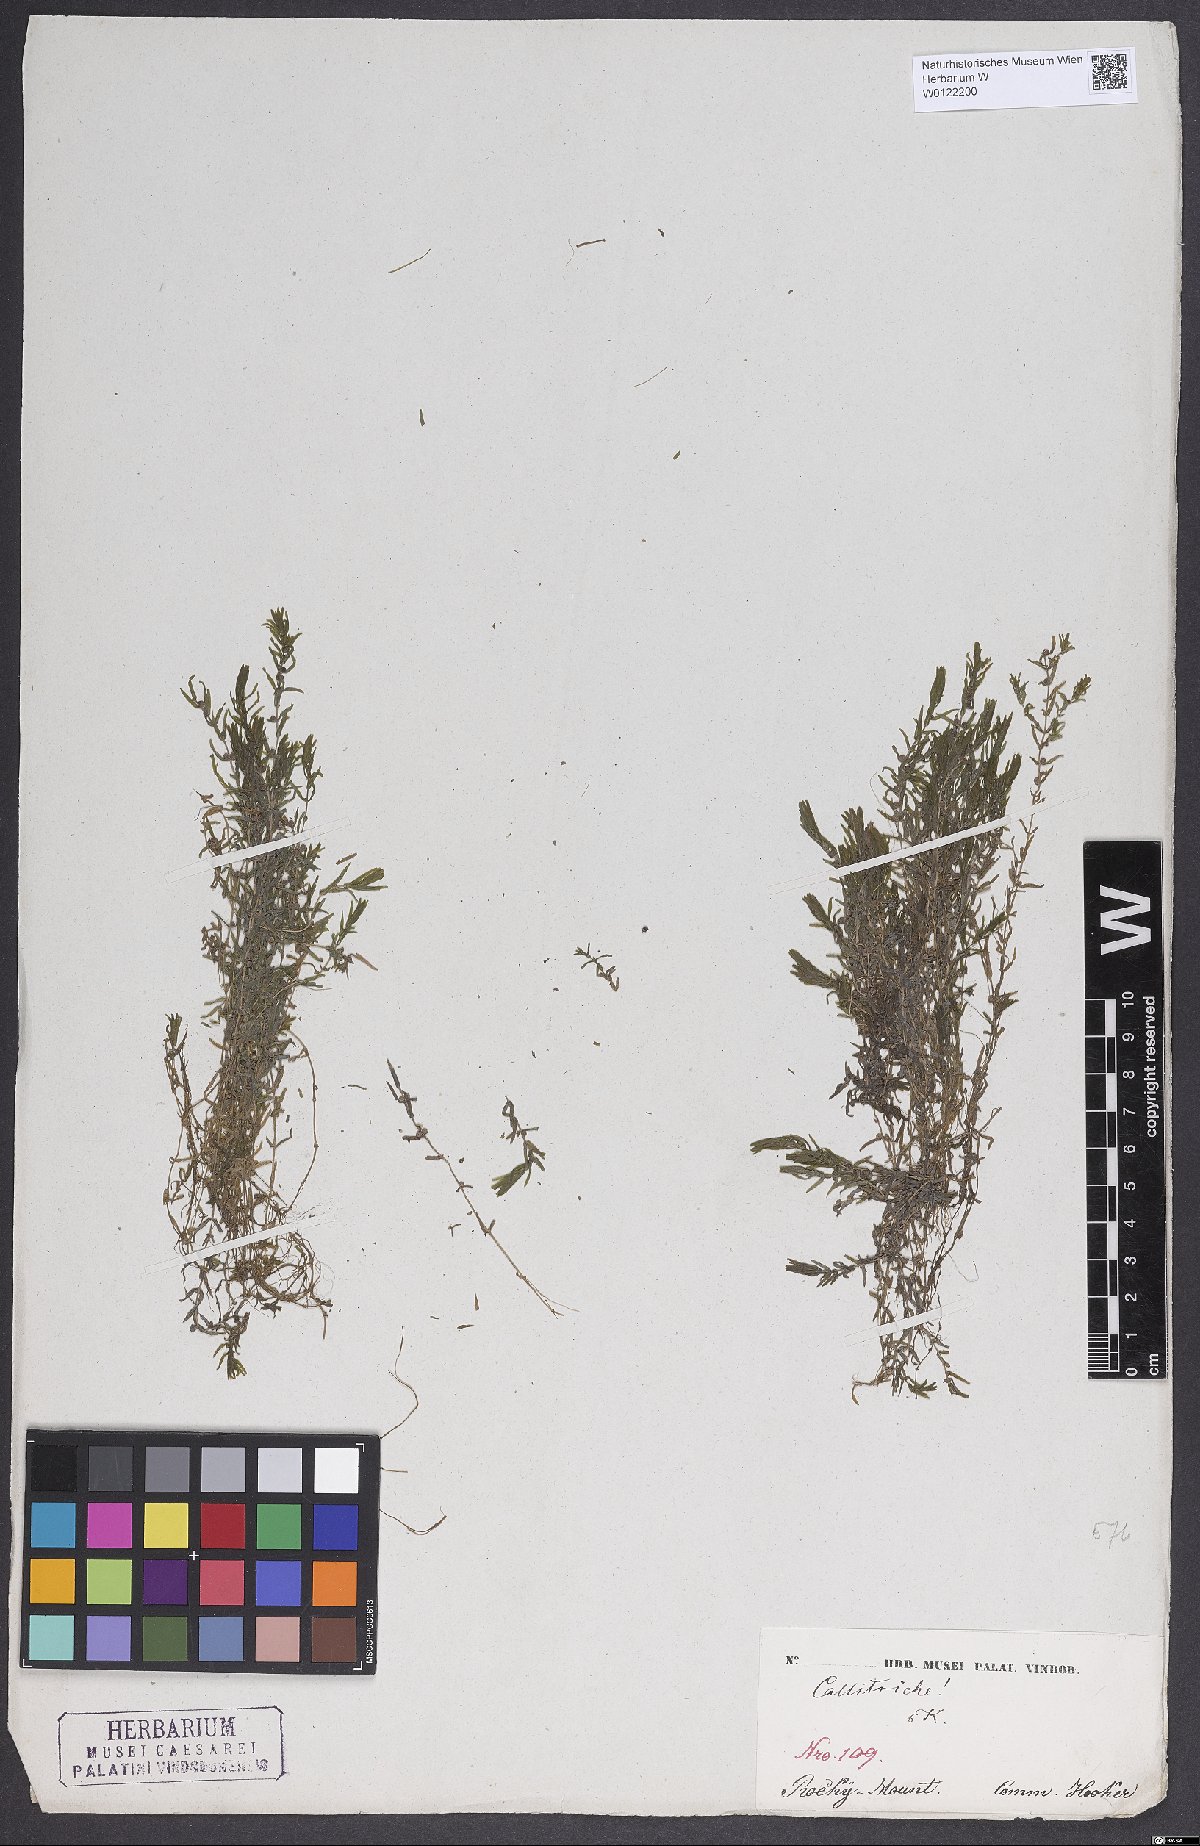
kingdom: Plantae
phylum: Tracheophyta
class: Magnoliopsida
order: Lamiales
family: Plantaginaceae
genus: Callitriche
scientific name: Callitriche
